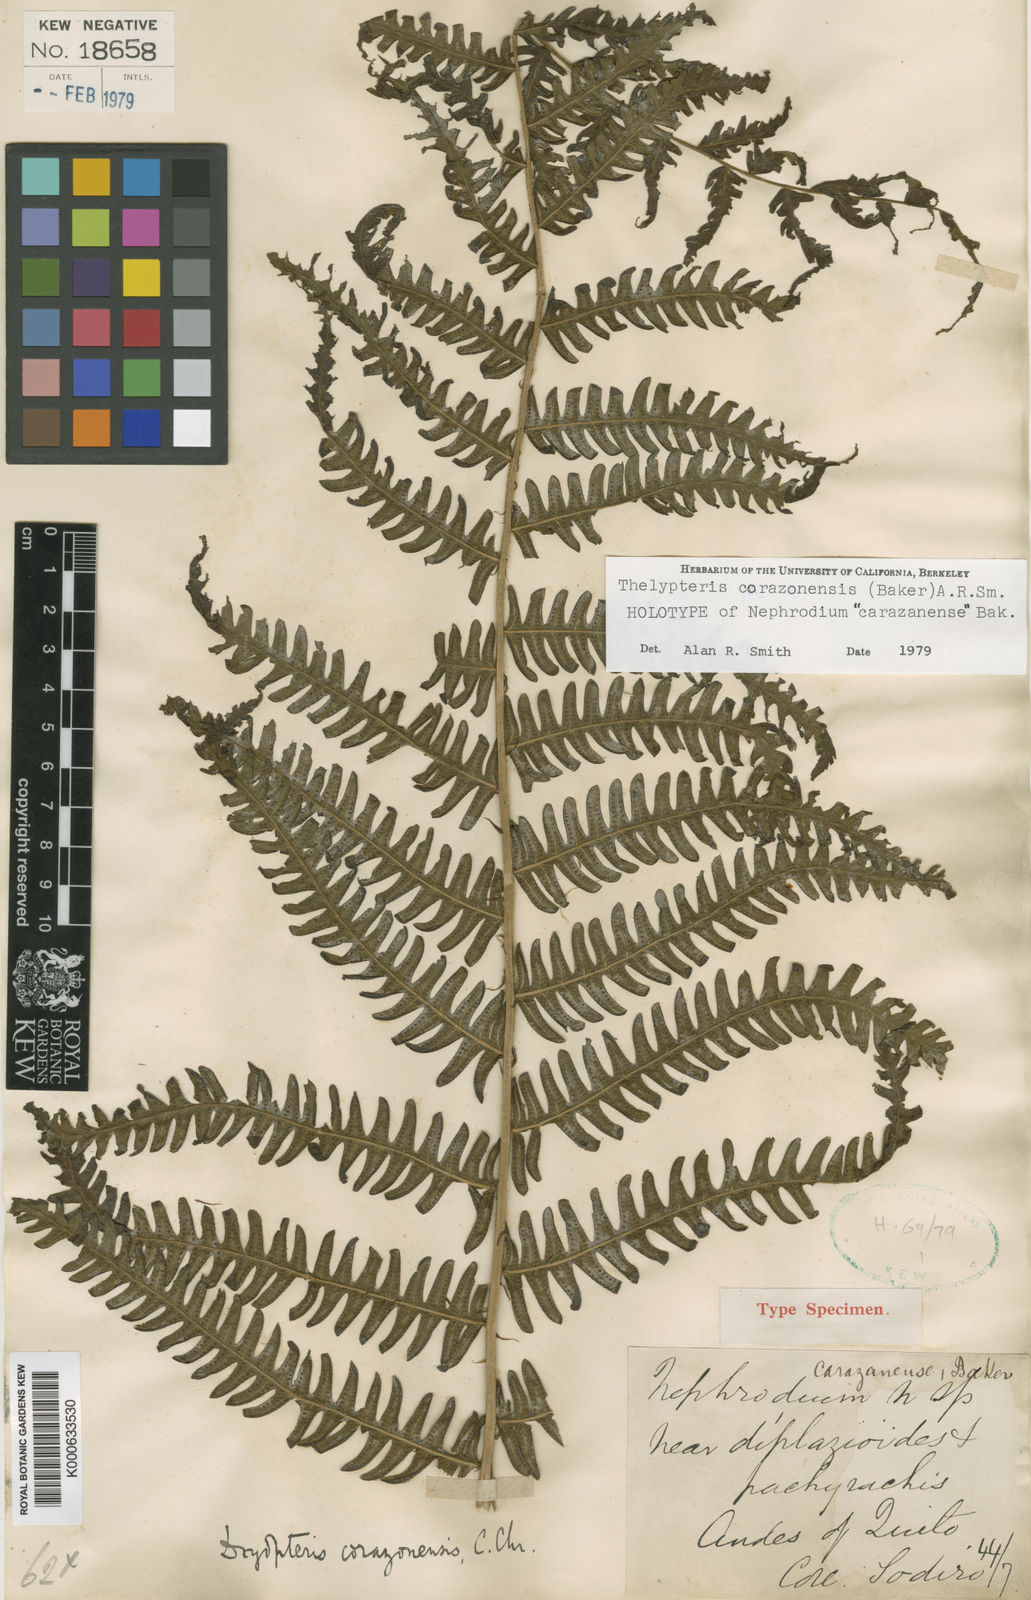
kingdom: Plantae
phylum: Tracheophyta
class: Polypodiopsida
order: Polypodiales
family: Thelypteridaceae
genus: Amauropelta
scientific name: Amauropelta corazonensis
